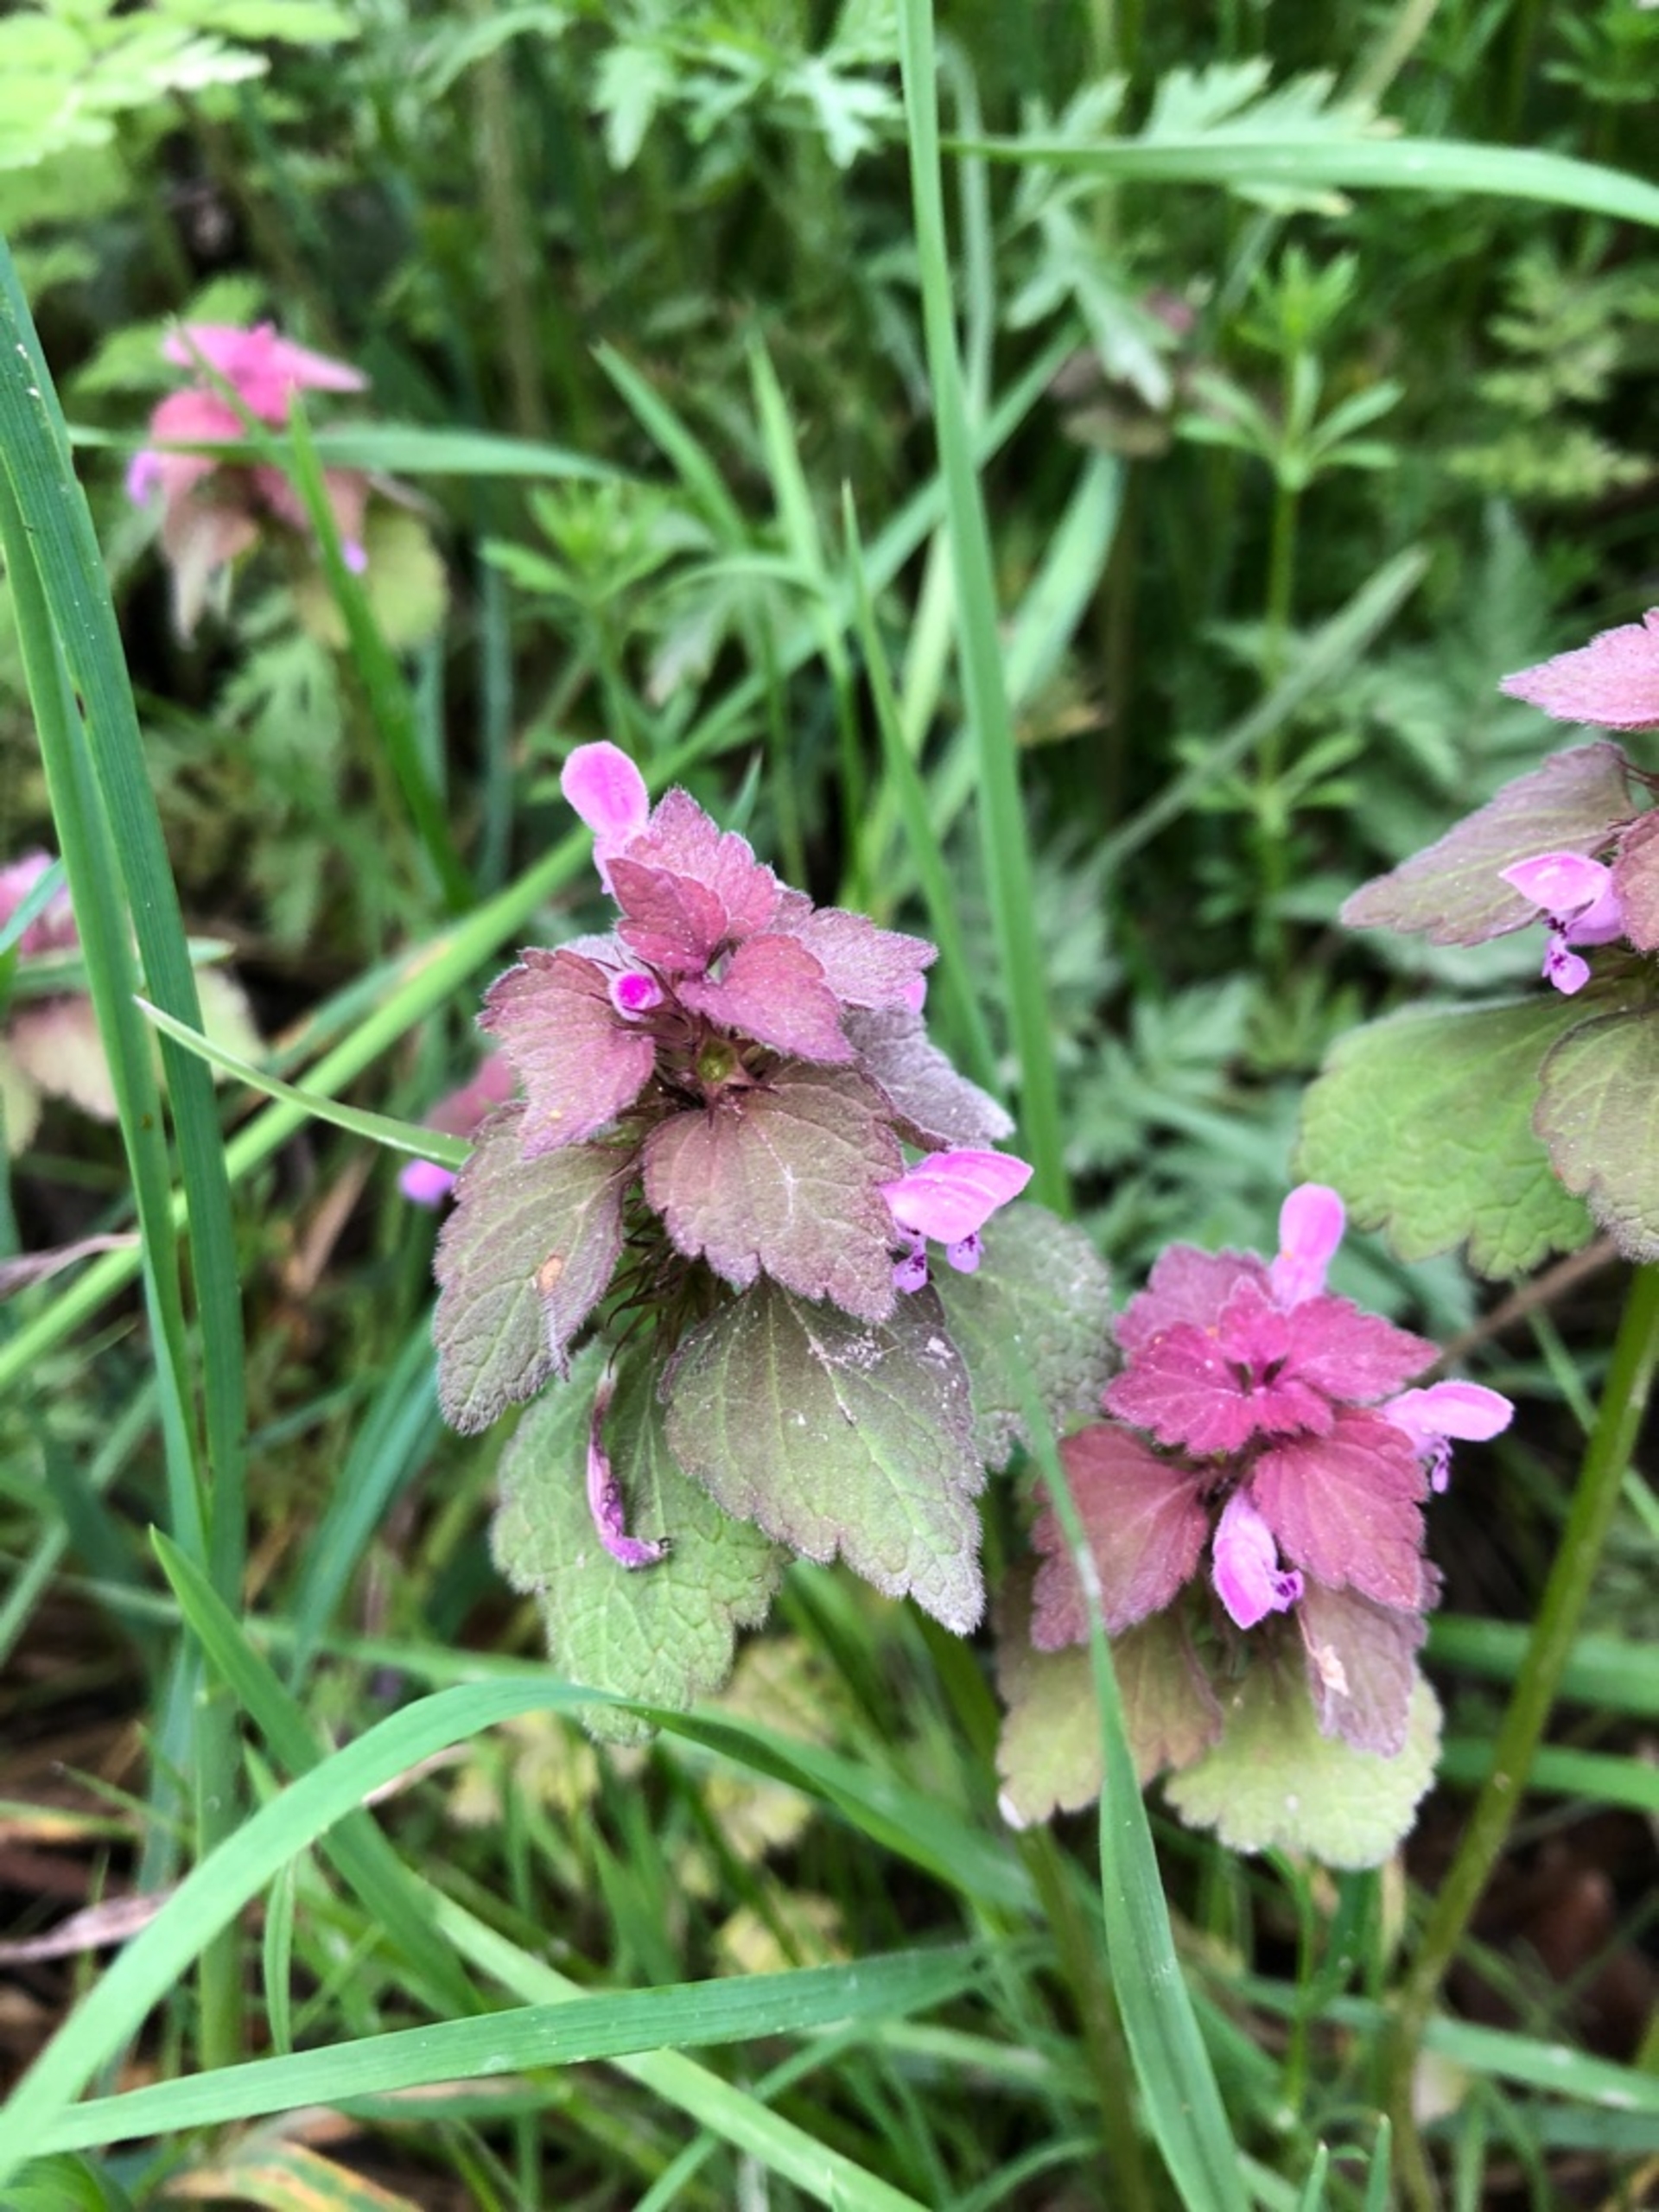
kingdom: Plantae
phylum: Tracheophyta
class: Magnoliopsida
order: Lamiales
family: Lamiaceae
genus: Lamium
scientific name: Lamium purpureum
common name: Rød tvetand
